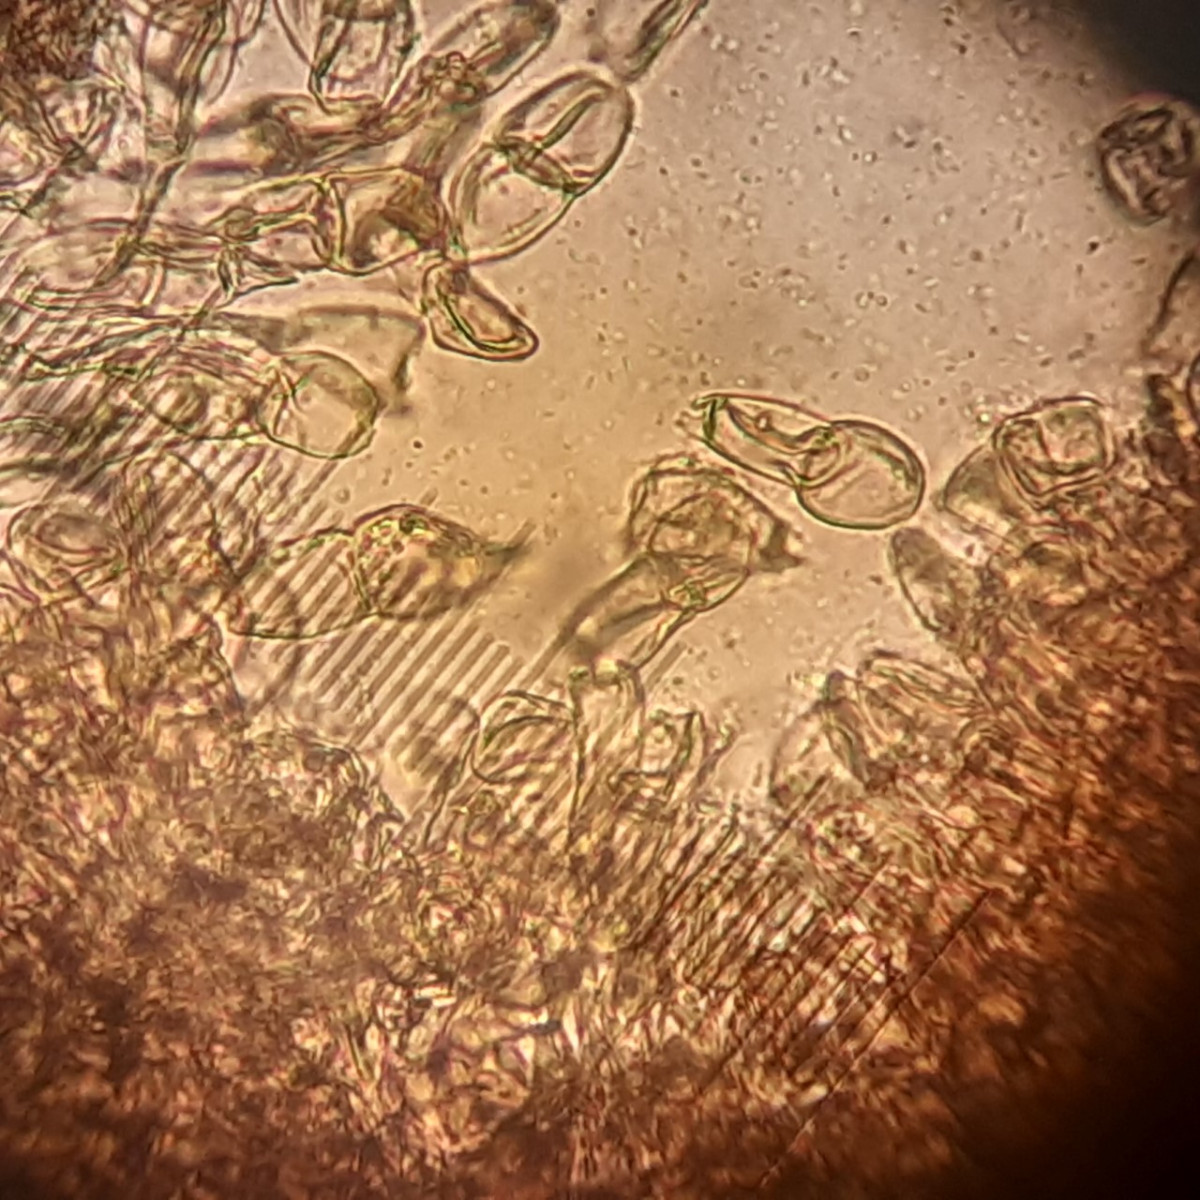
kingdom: Fungi
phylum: Basidiomycota
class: Pucciniomycetes
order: Pucciniales
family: Pucciniaceae
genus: Puccinia
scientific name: Puccinia veronicae
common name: Wood speedwell rust
